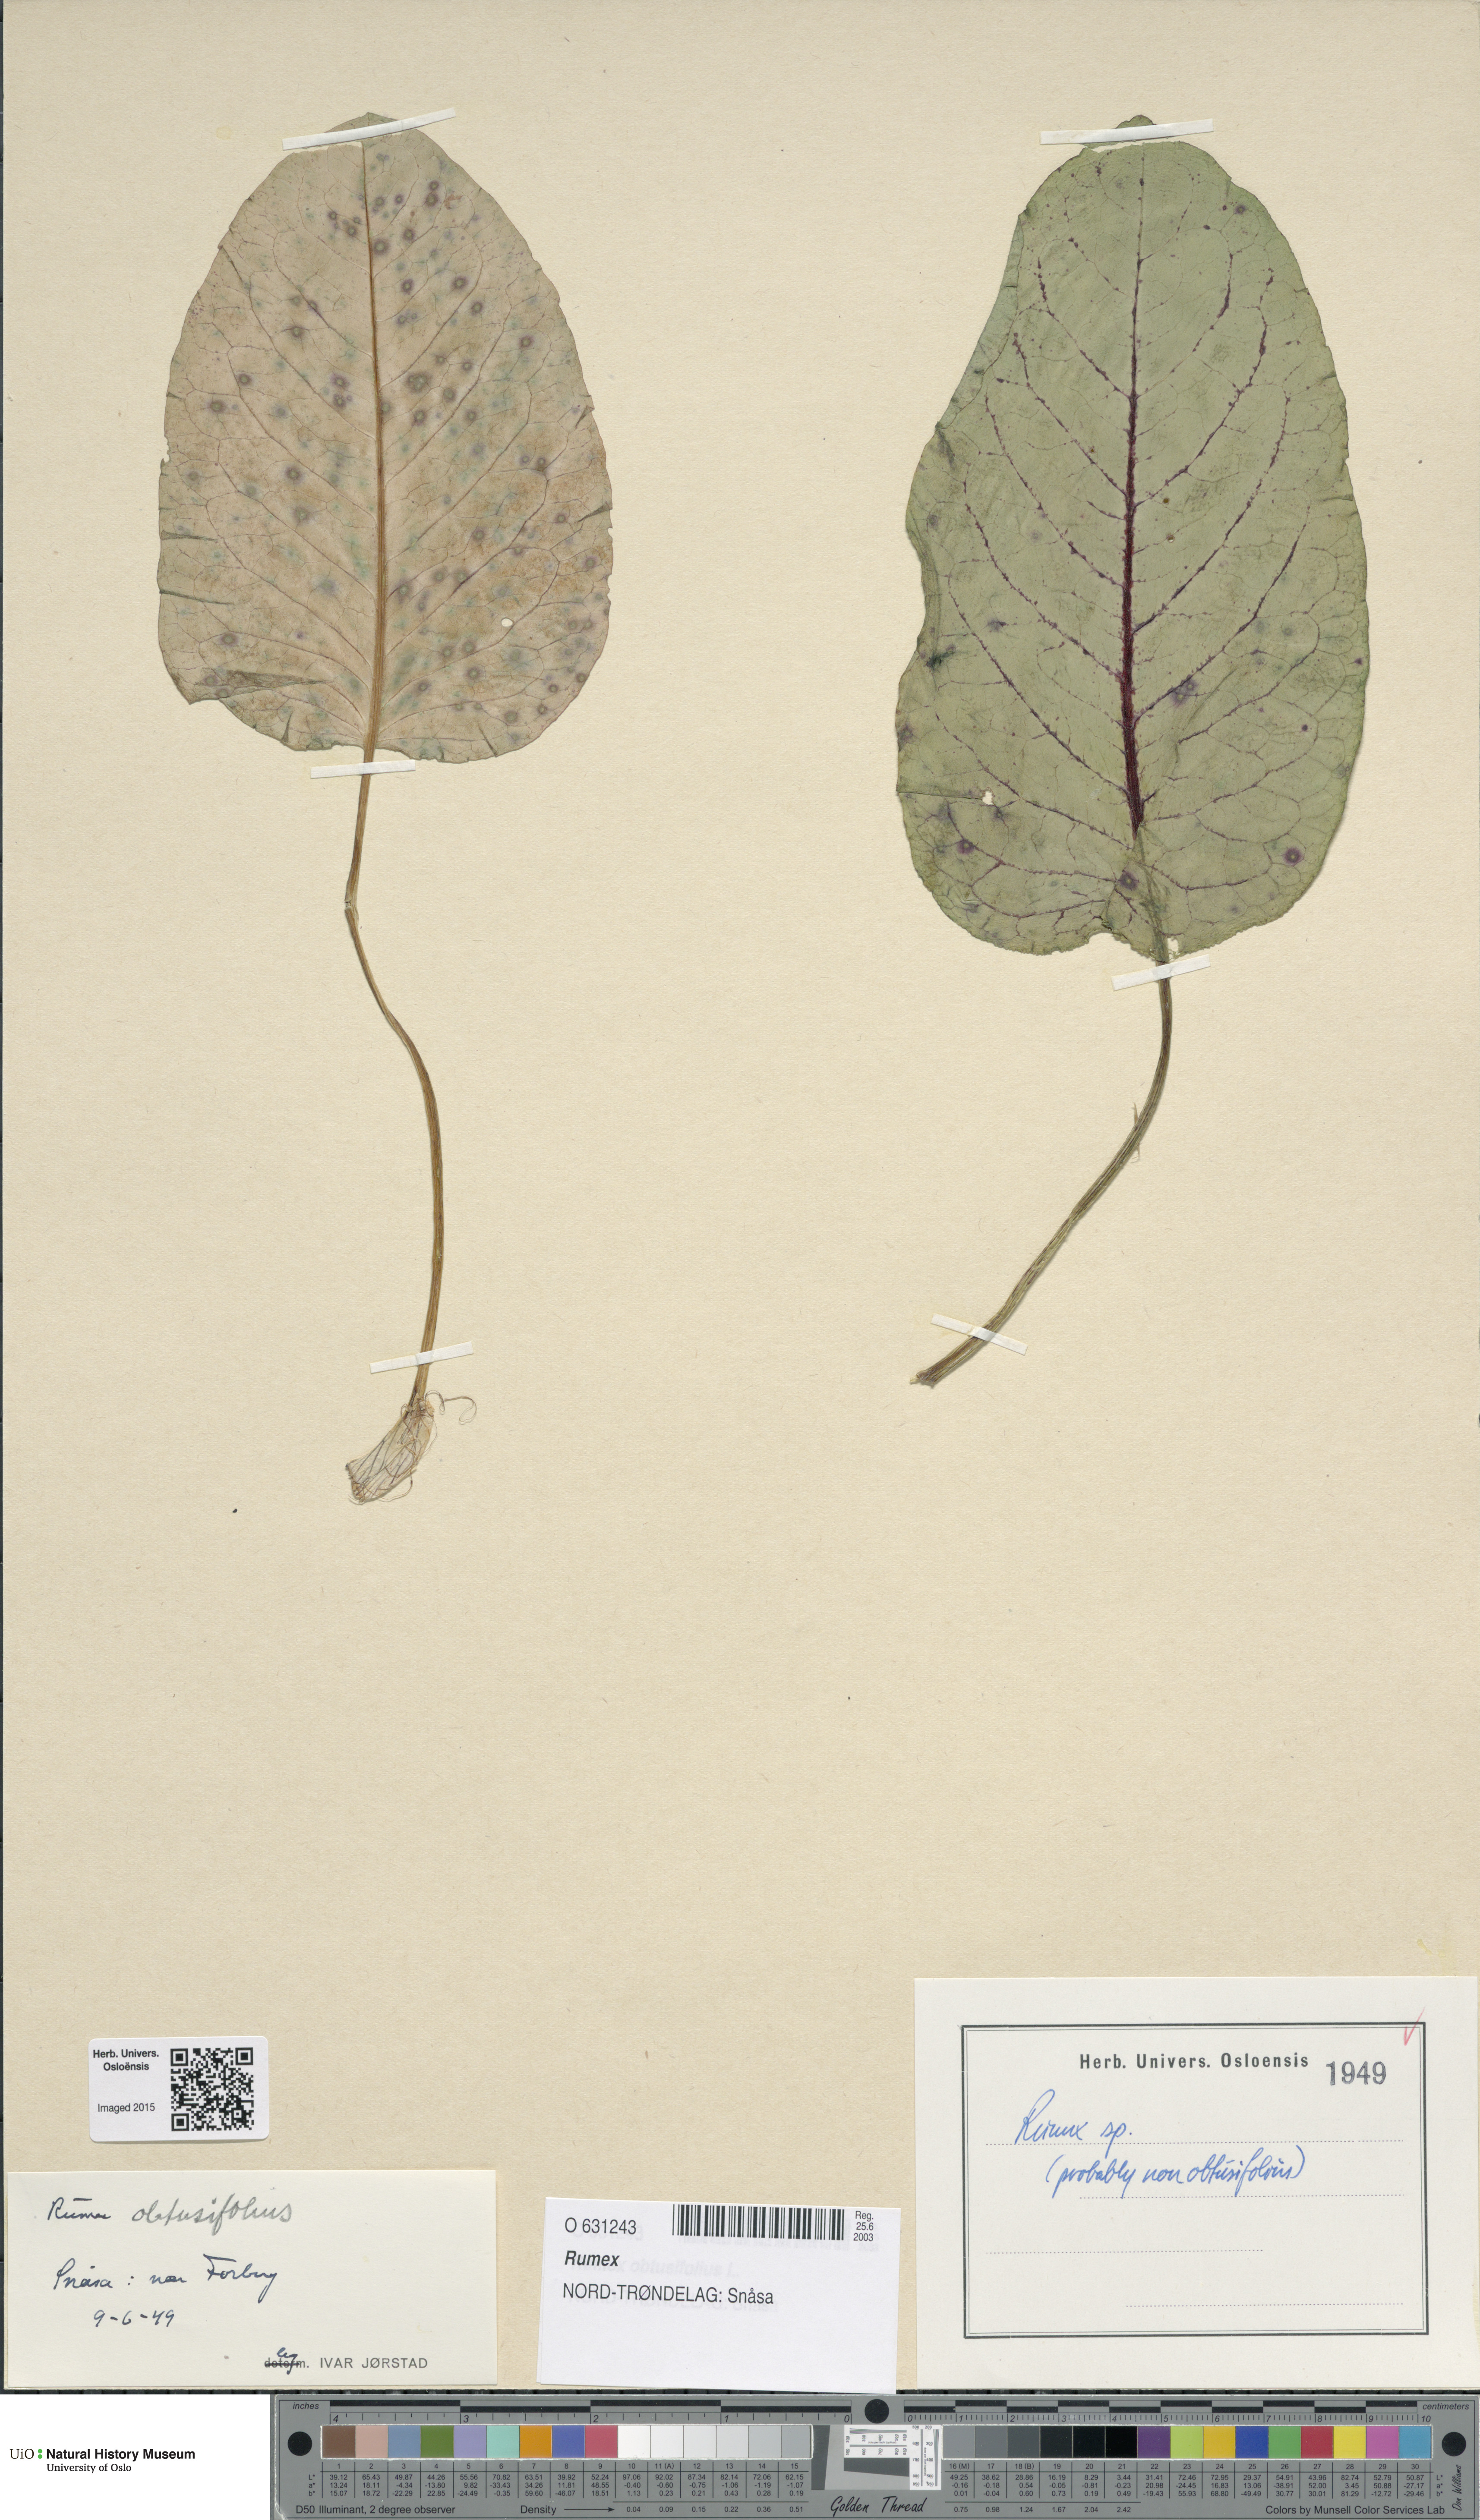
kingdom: Plantae
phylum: Tracheophyta
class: Magnoliopsida
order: Caryophyllales
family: Polygonaceae
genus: Rumex
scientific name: Rumex
